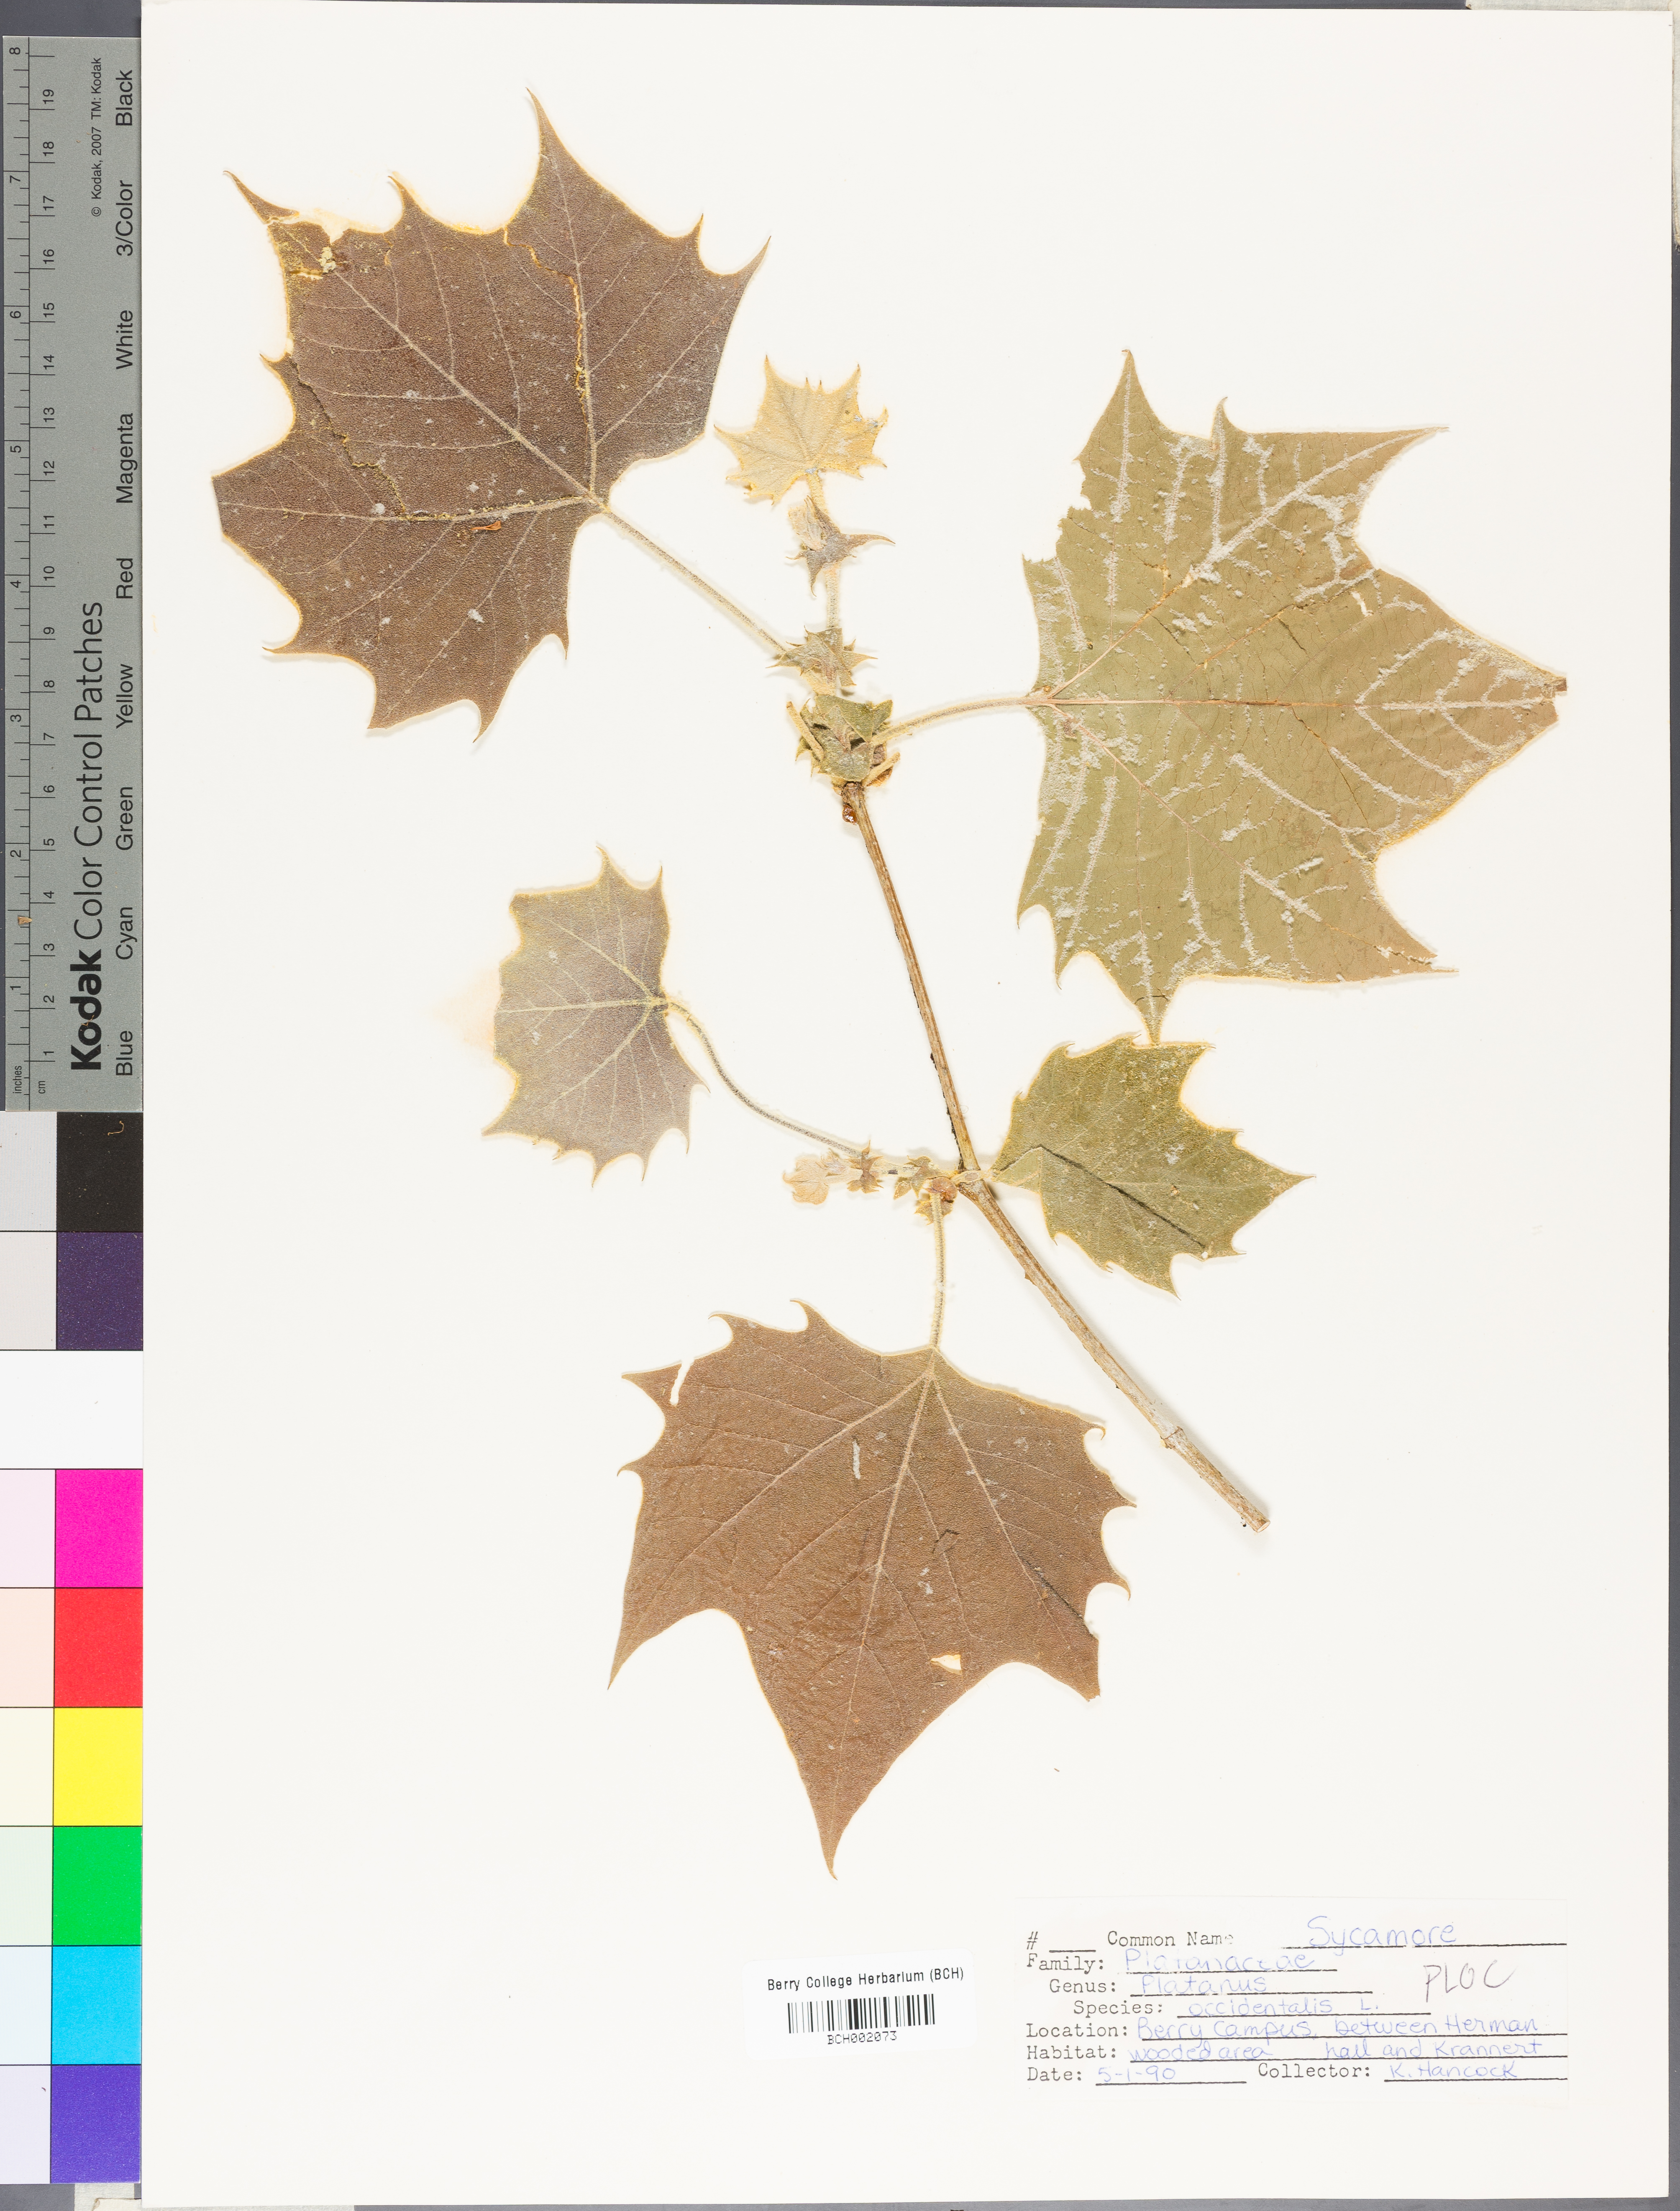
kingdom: Plantae
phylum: Tracheophyta
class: Magnoliopsida
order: Proteales
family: Platanaceae
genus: Platanus
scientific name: Platanus occidentalis
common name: American sycamore
